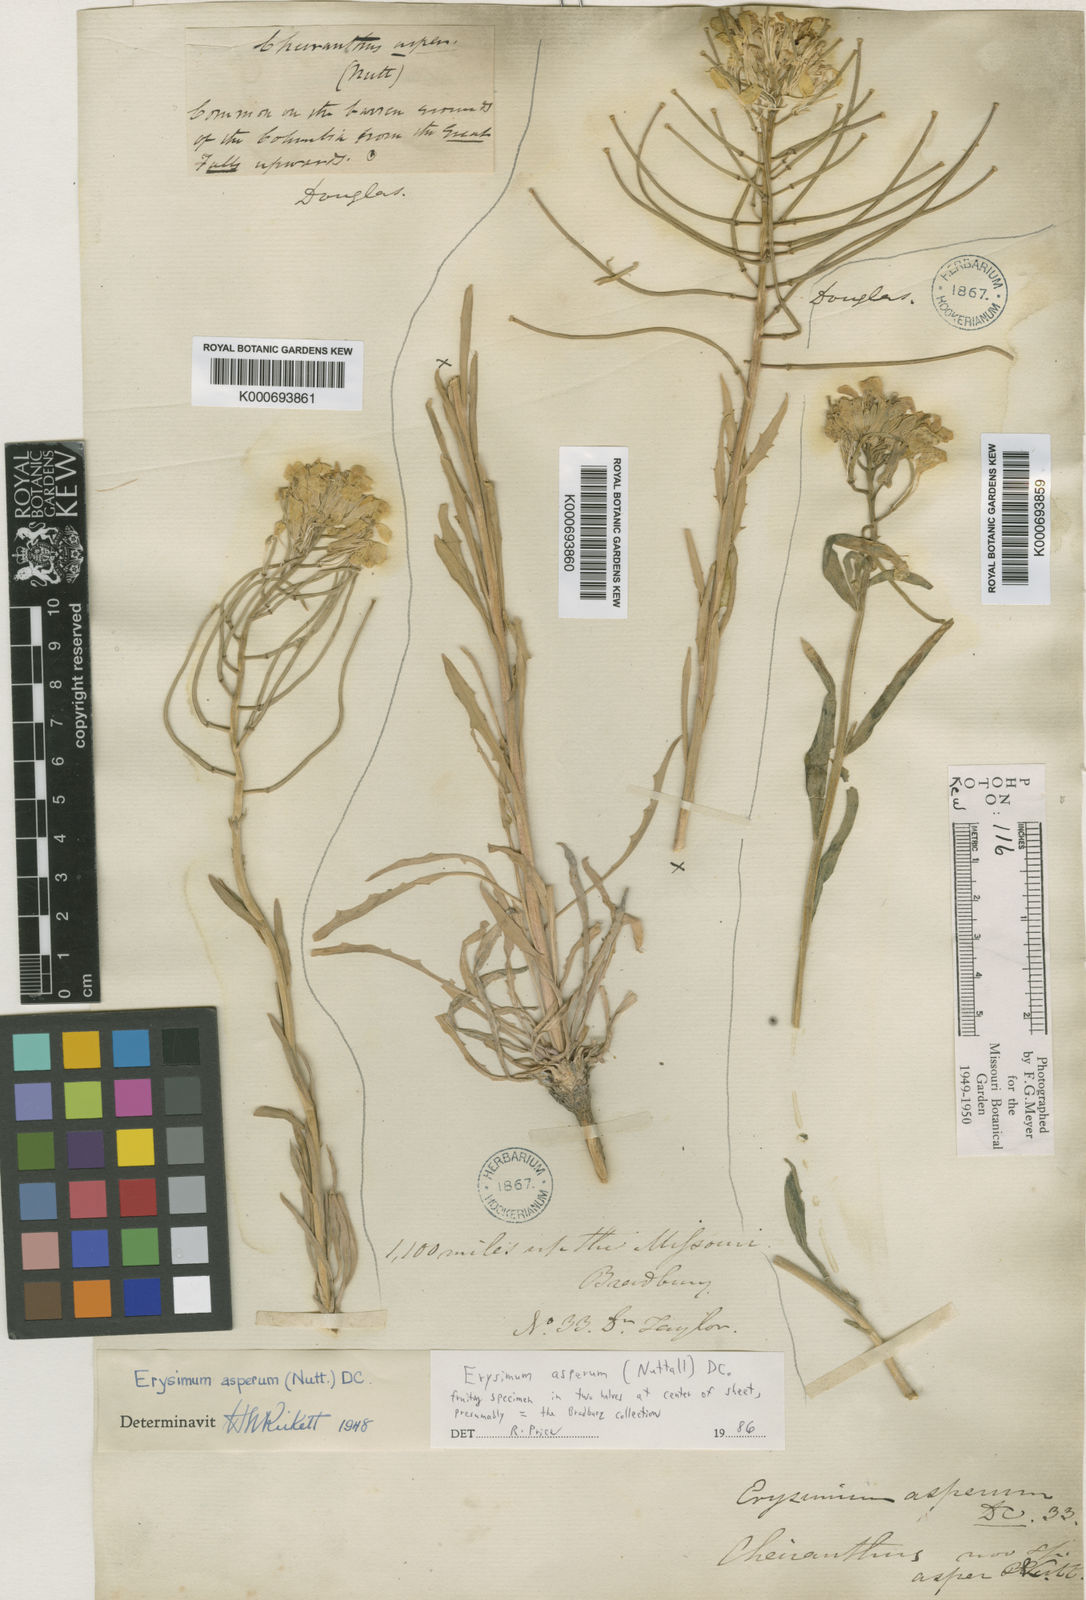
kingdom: Plantae
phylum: Tracheophyta
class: Magnoliopsida
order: Brassicales
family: Brassicaceae
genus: Erysimum
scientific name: Erysimum asperum
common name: Western wallflower
